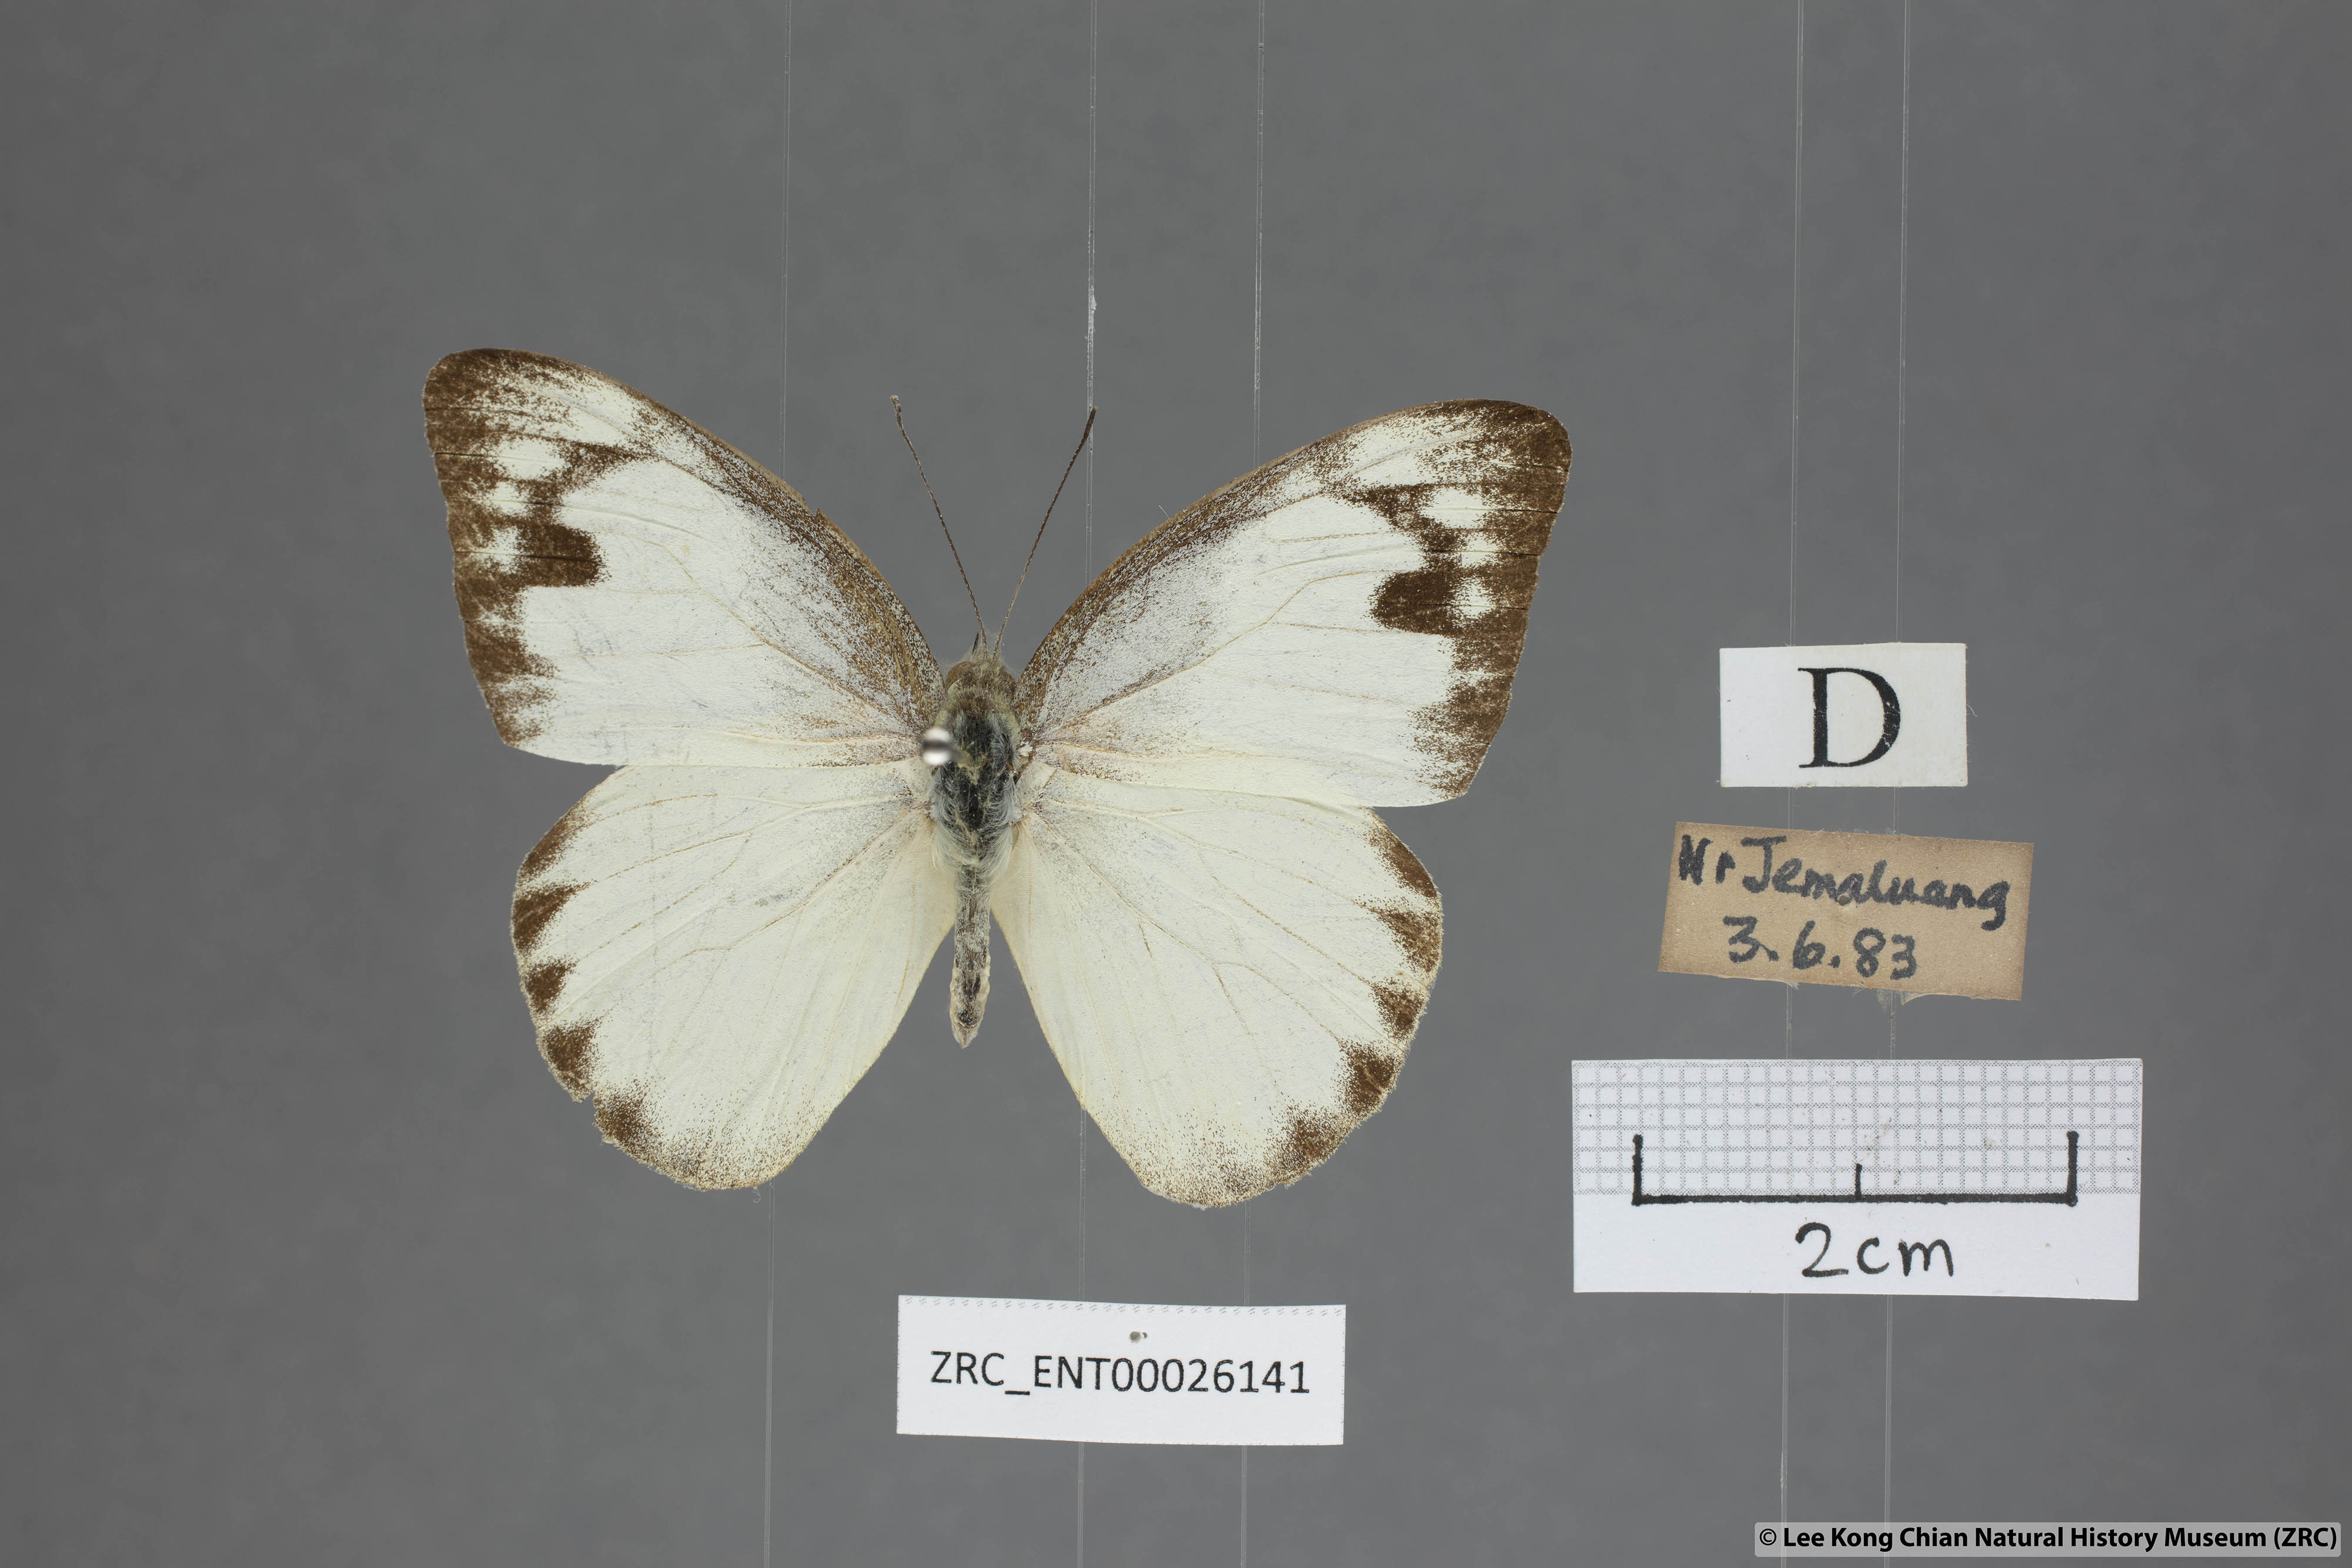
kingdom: Animalia
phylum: Arthropoda
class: Insecta
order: Lepidoptera
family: Pieridae
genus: Appias
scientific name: Appias paulina
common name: Ceylon lesser albatross
